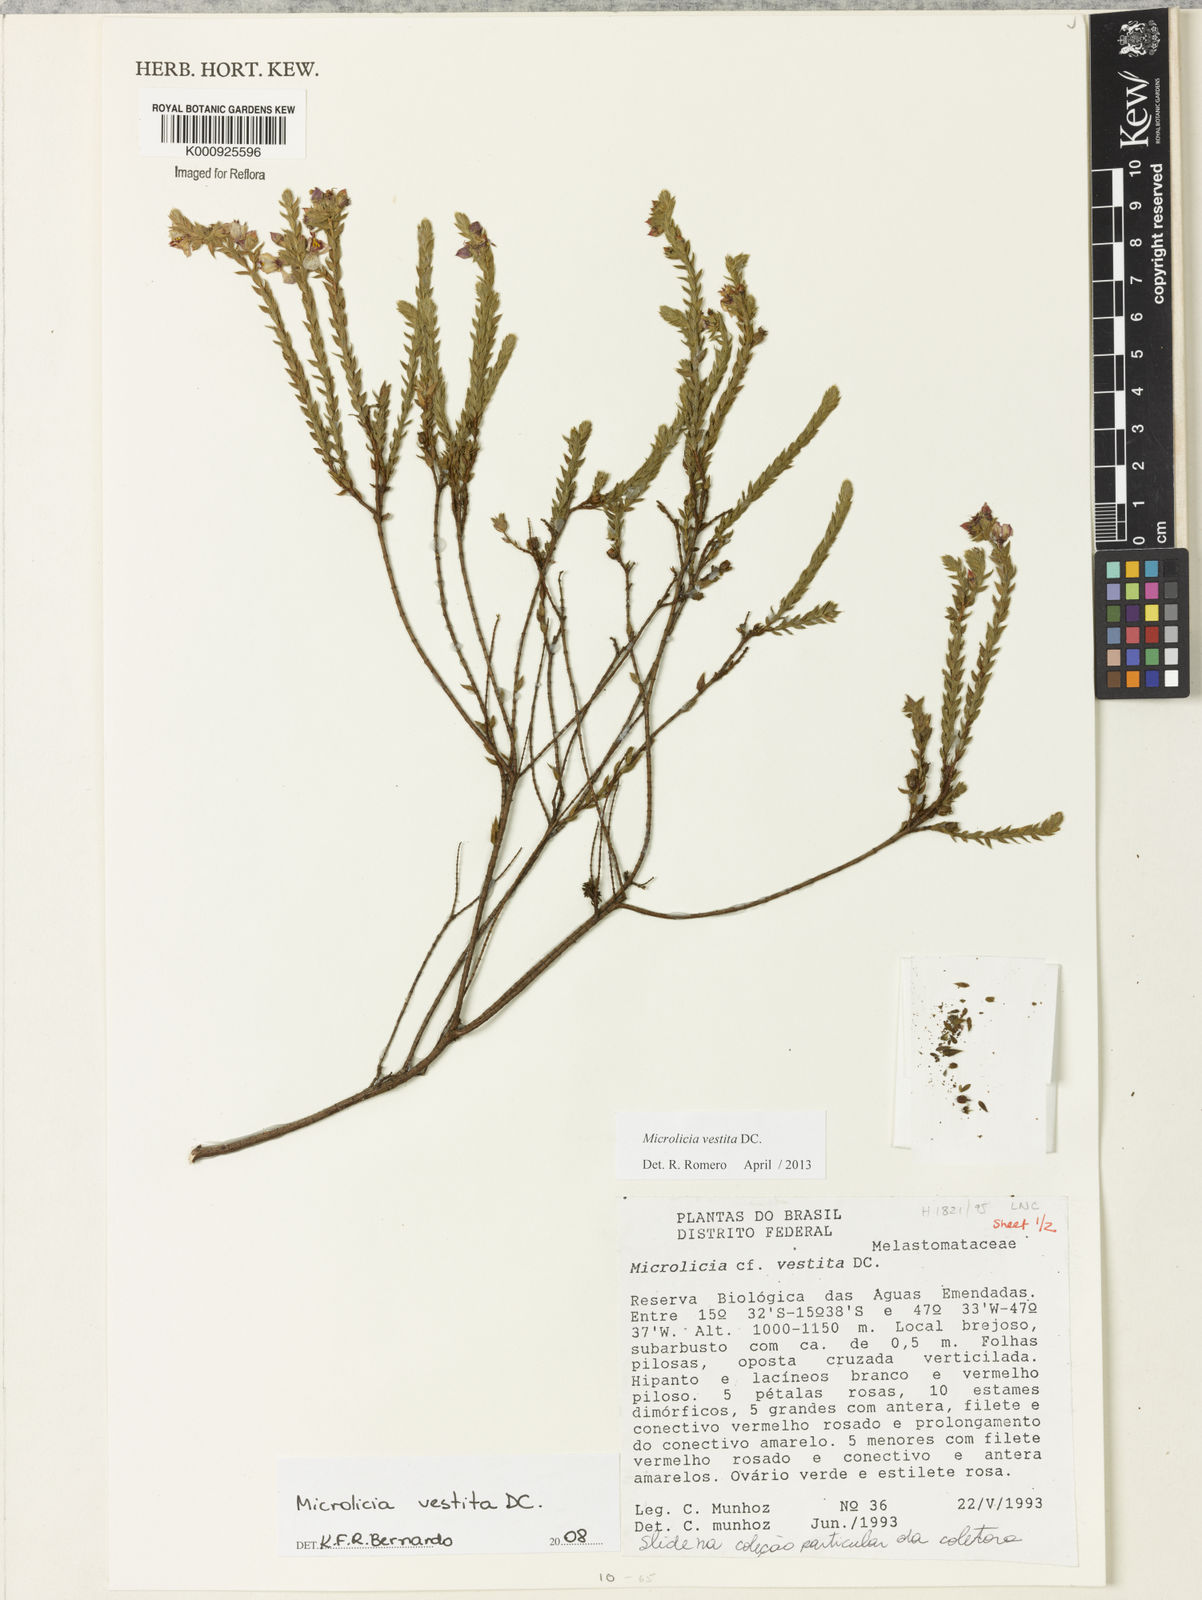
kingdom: Plantae
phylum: Tracheophyta
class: Magnoliopsida
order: Myrtales
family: Melastomataceae
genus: Microlicia
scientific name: Microlicia vestita
